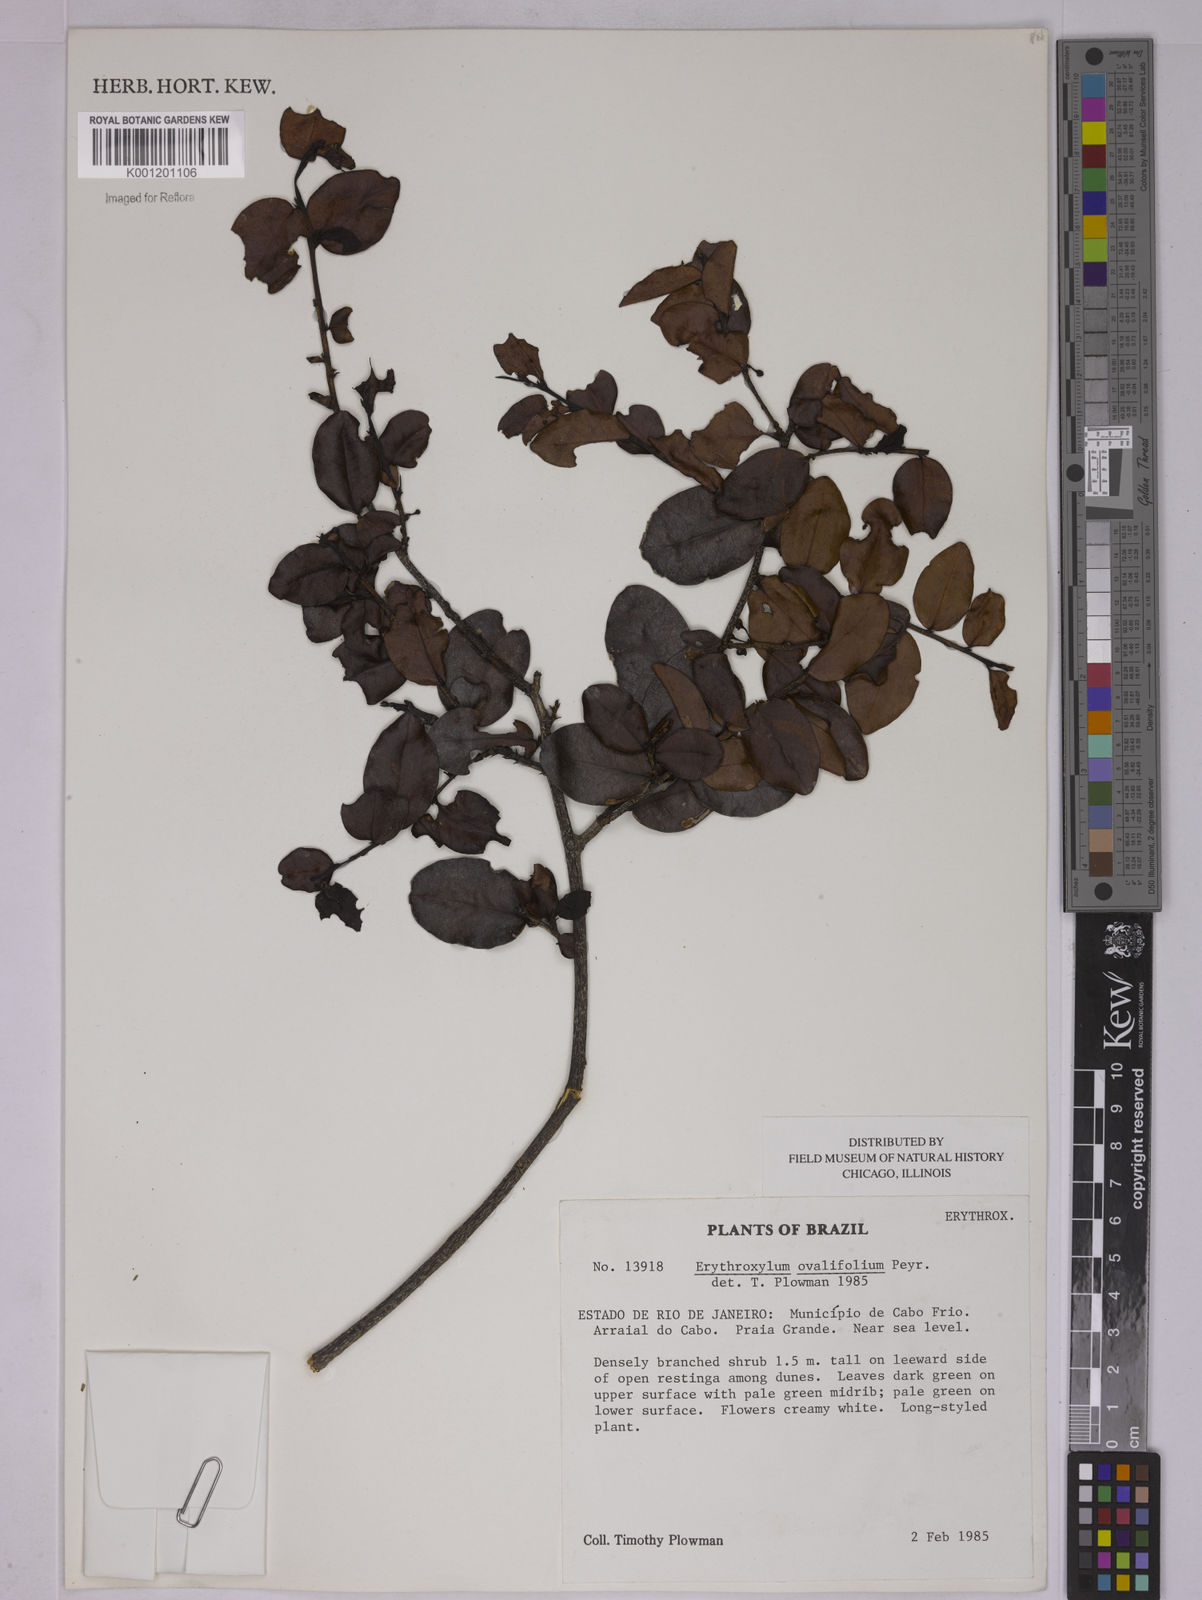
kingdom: Plantae
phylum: Tracheophyta
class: Magnoliopsida
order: Malpighiales
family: Erythroxylaceae
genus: Erythroxylum
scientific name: Erythroxylum ovalifolium
